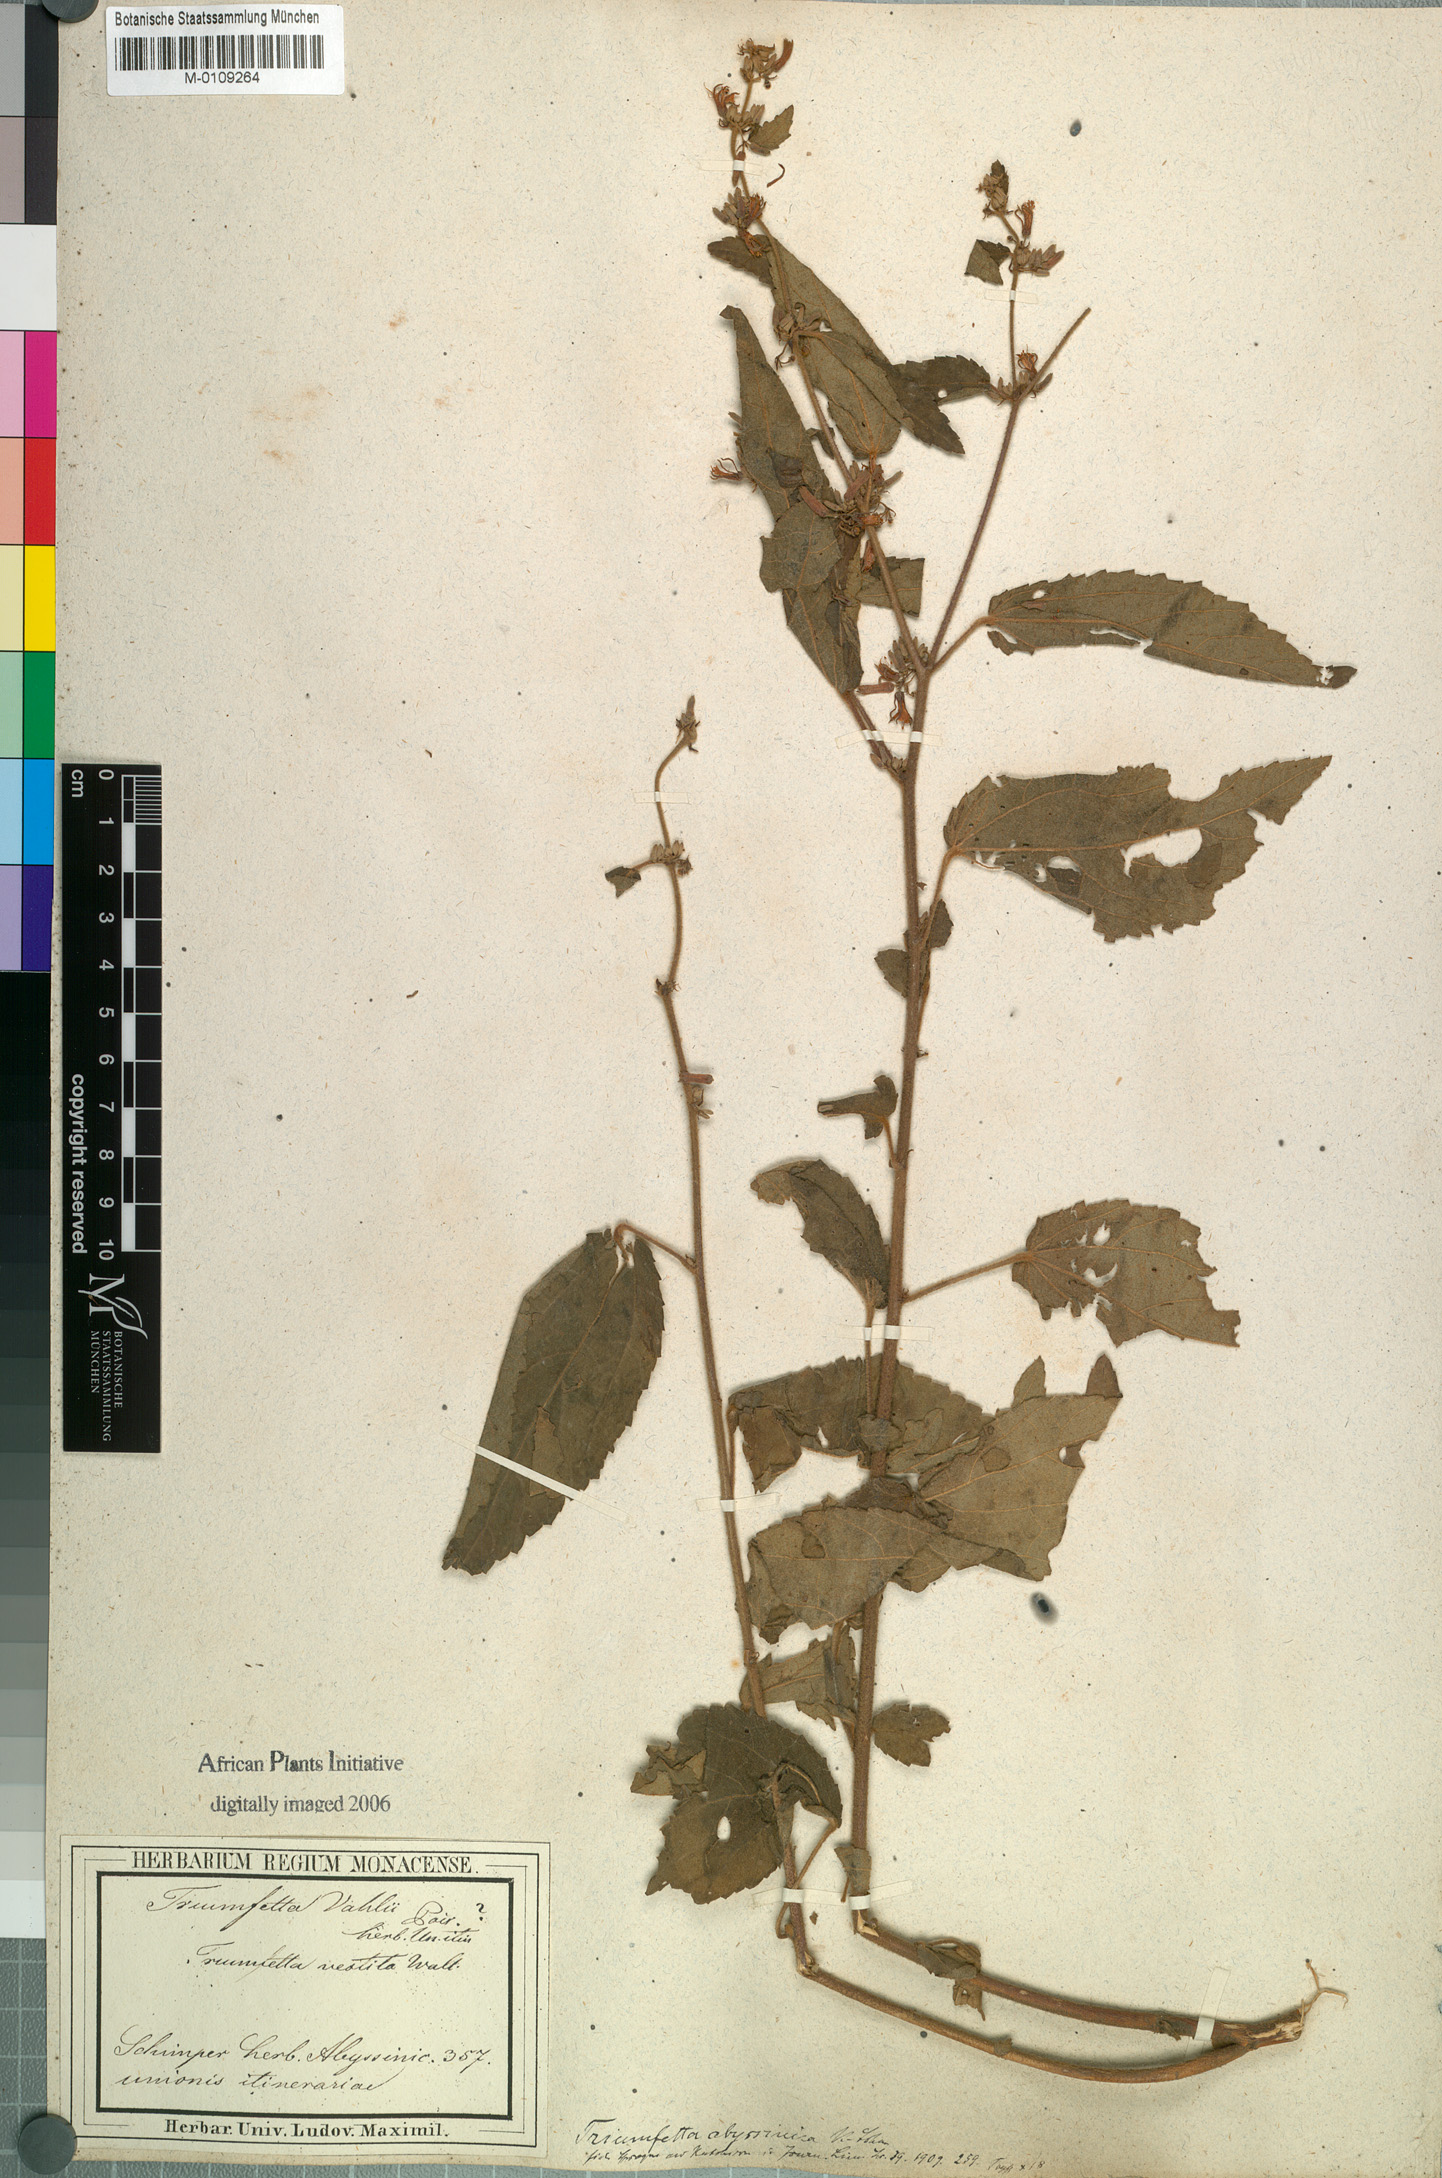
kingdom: Plantae
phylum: Tracheophyta
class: Magnoliopsida
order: Malvales
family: Malvaceae
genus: Triumfetta
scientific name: Triumfetta pilosa
